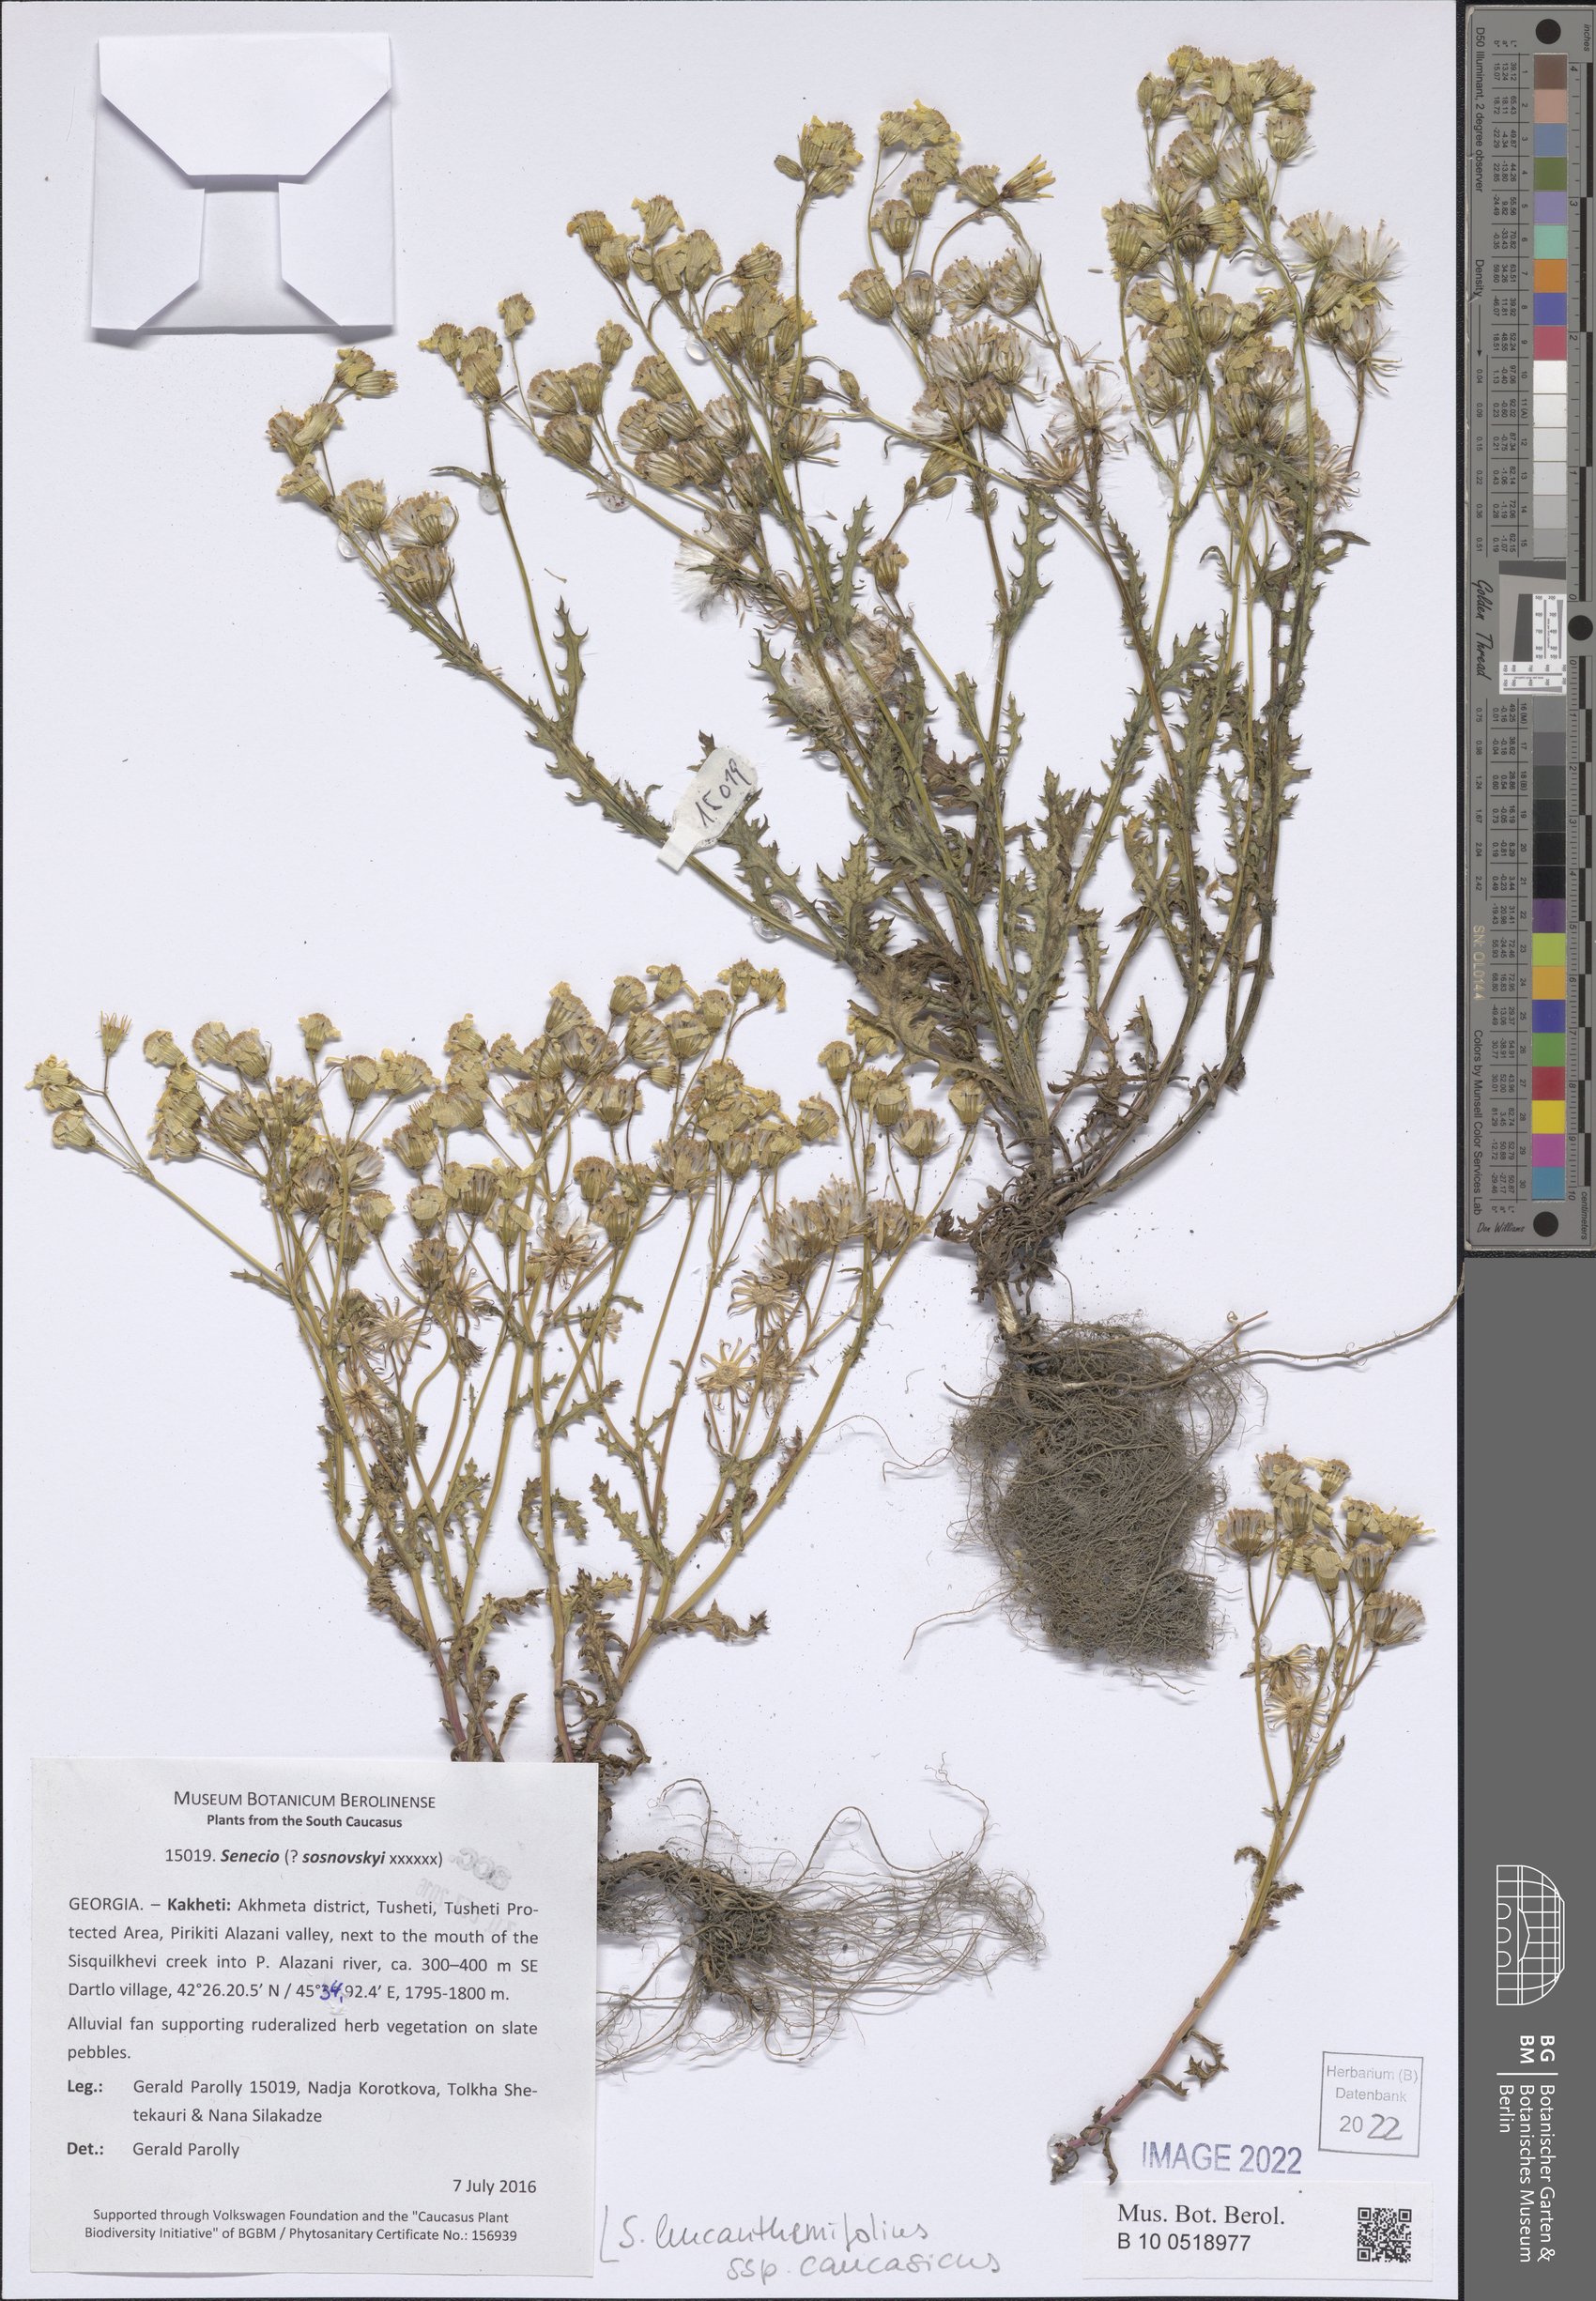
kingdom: Plantae
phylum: Tracheophyta
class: Magnoliopsida
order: Asterales
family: Asteraceae
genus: Senecio
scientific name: Senecio leucanthemifolius
